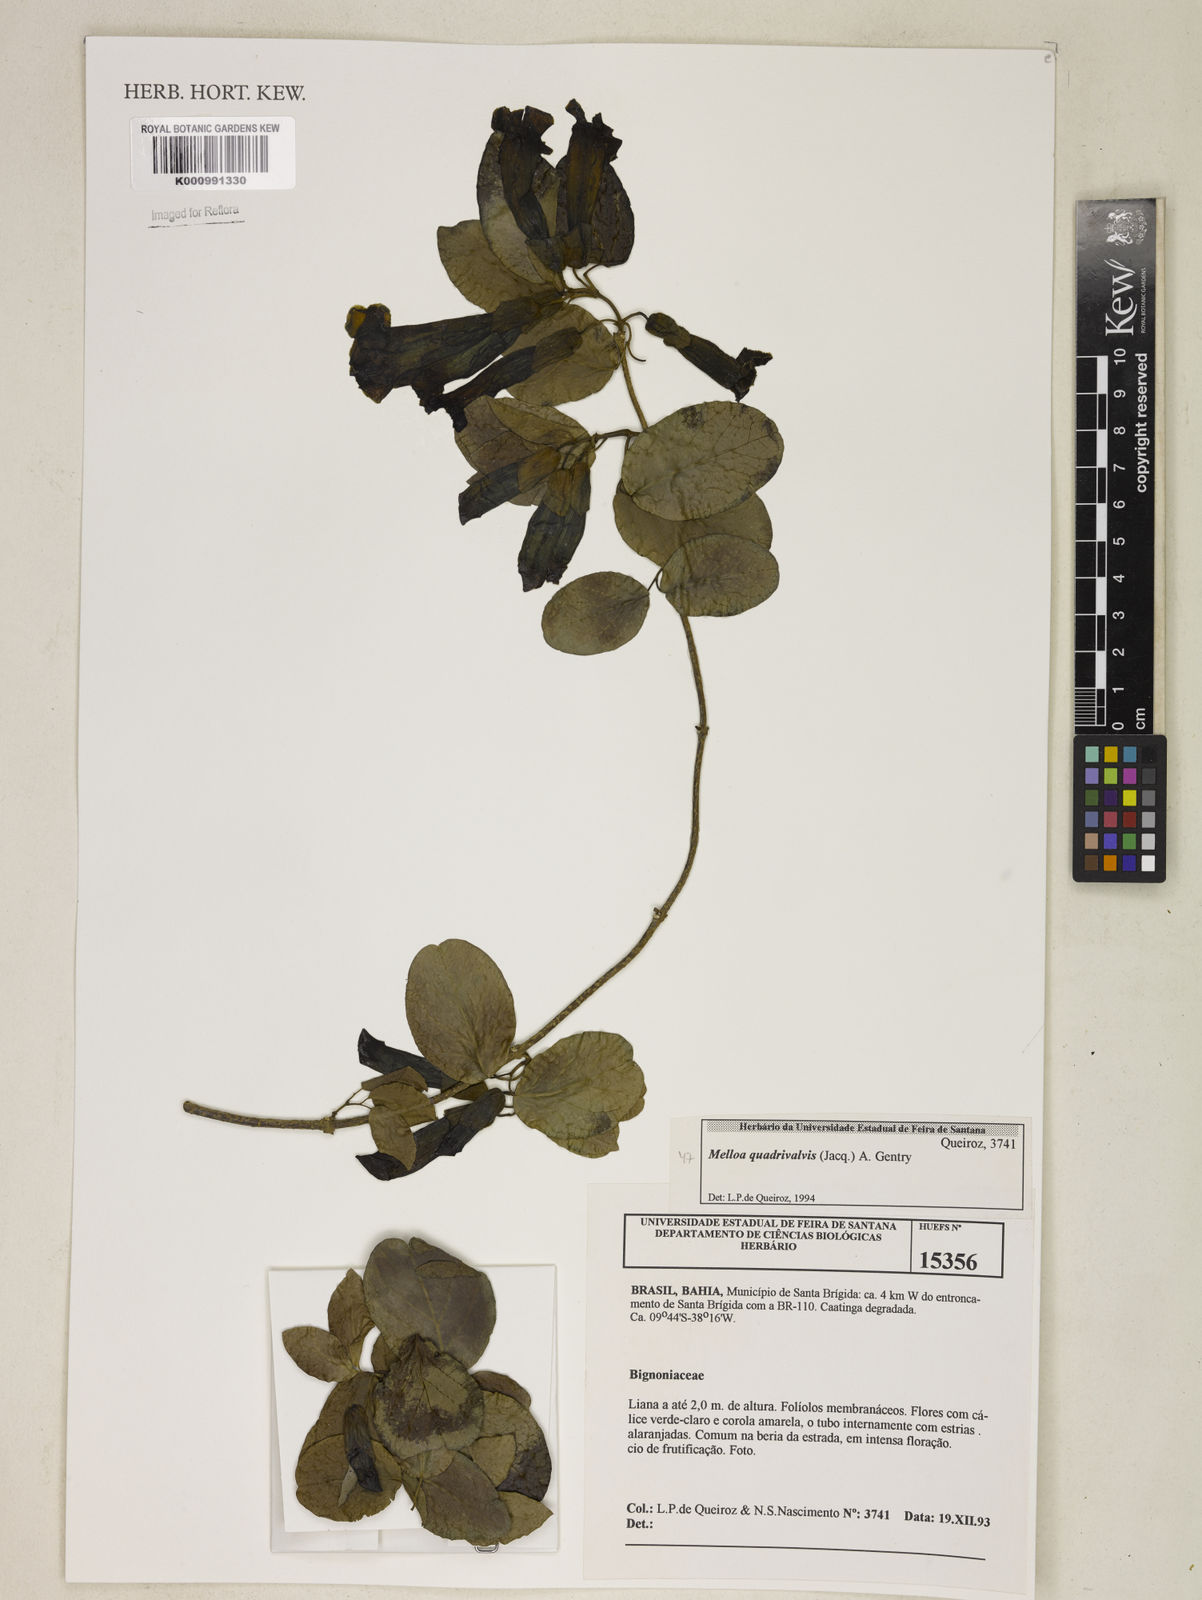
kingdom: Plantae
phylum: Tracheophyta
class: Magnoliopsida
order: Lamiales
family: Bignoniaceae
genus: Dolichandra
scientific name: Dolichandra quadrivalvis
